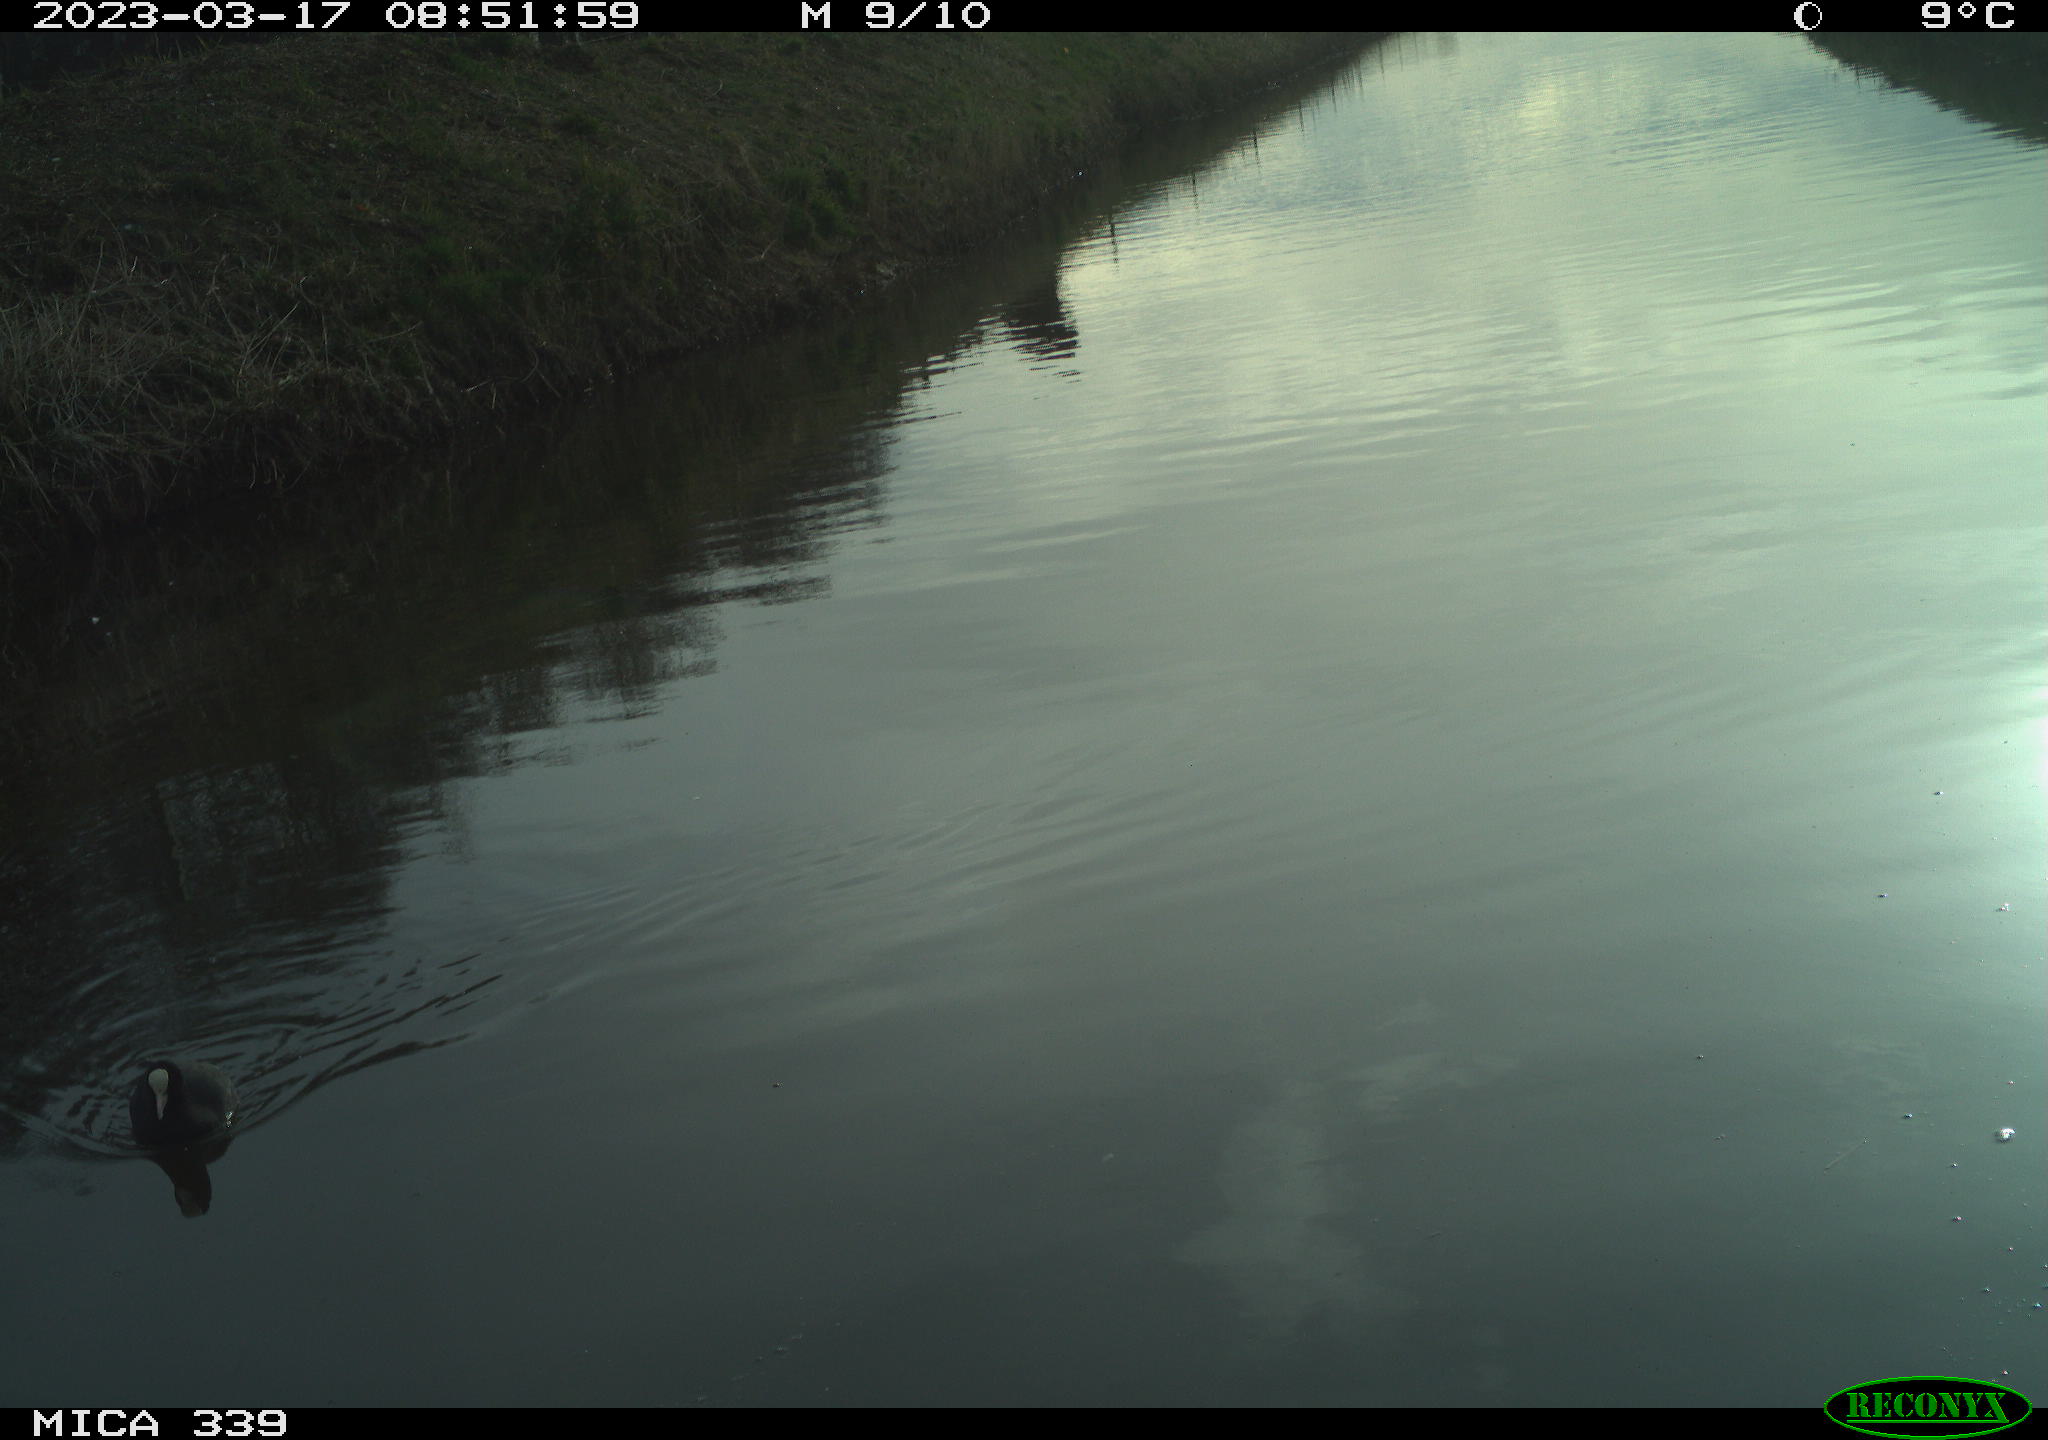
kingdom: Animalia
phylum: Chordata
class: Aves
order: Anseriformes
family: Anatidae
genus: Anas
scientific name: Anas
